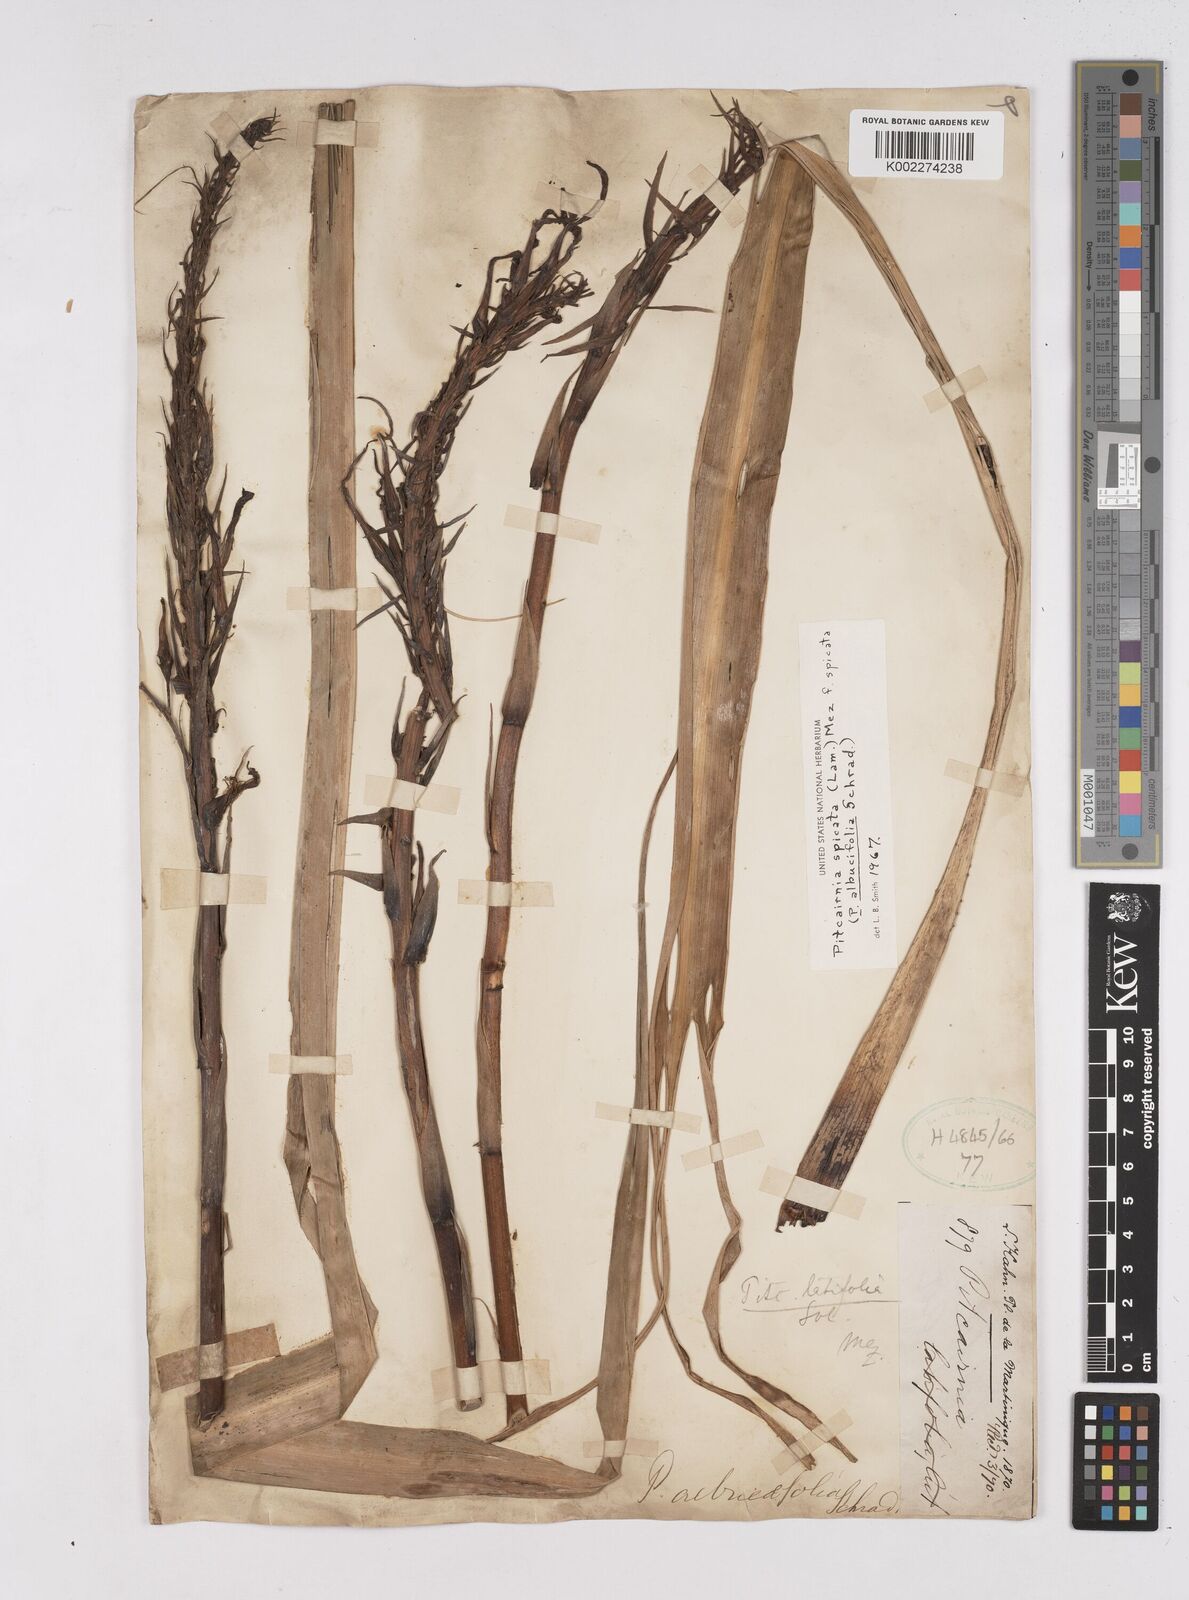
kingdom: Plantae
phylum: Tracheophyta
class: Liliopsida
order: Poales
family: Bromeliaceae
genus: Pitcairnia
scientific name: Pitcairnia spicata
